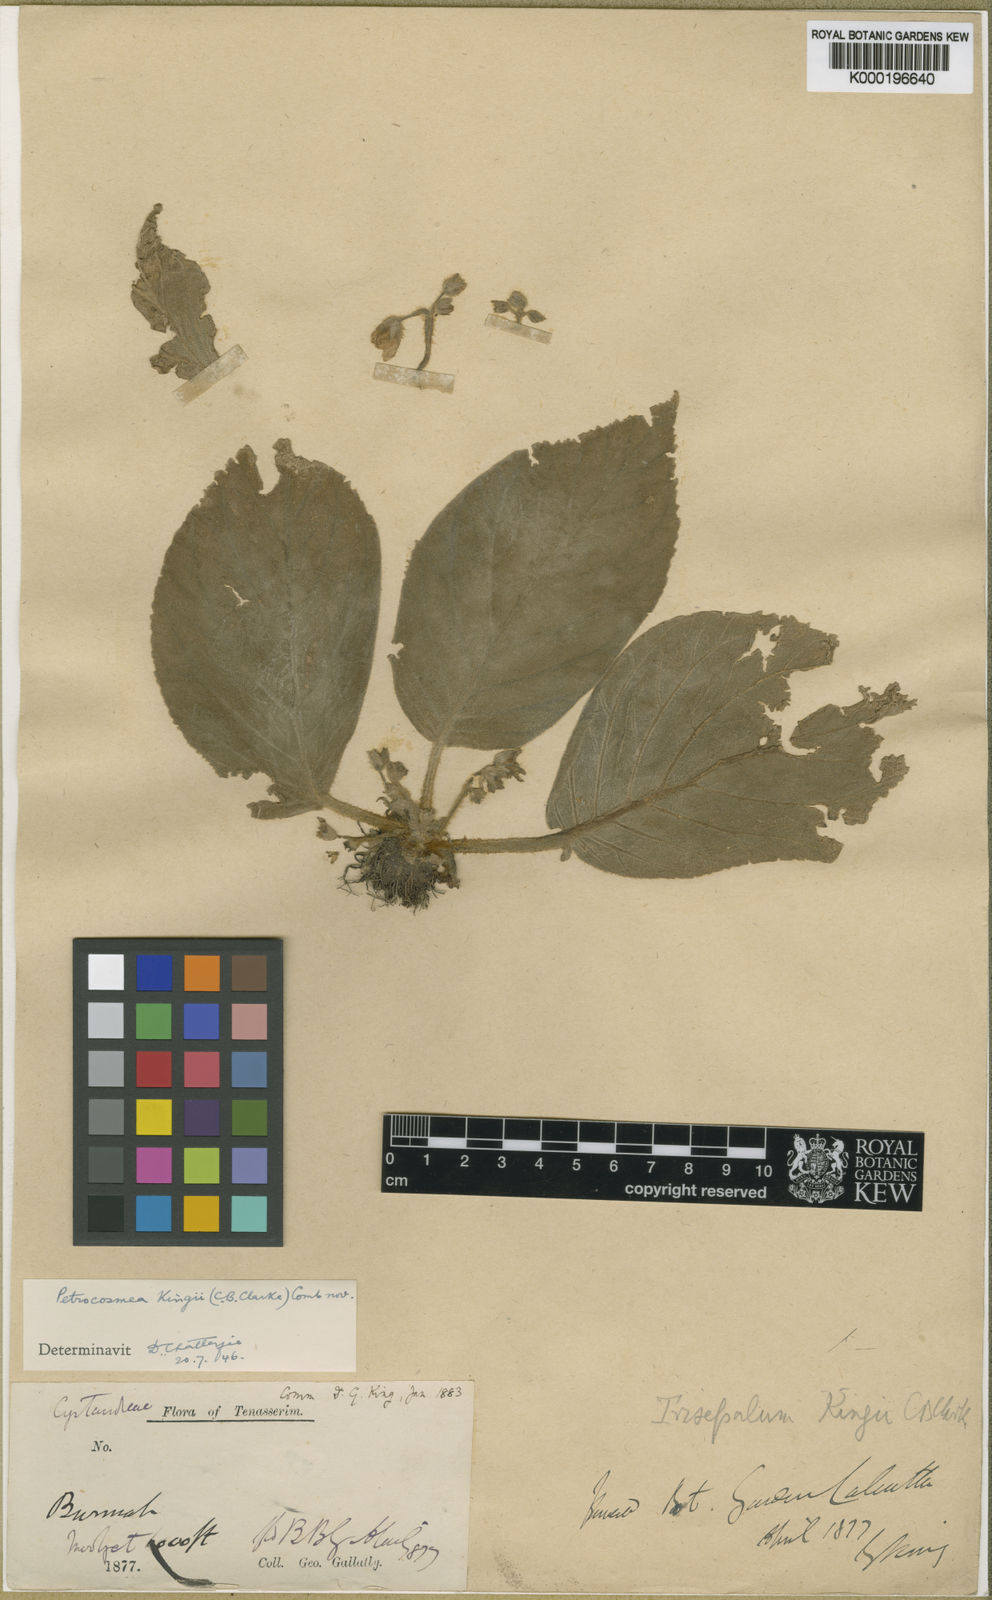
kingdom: Plantae
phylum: Tracheophyta
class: Magnoliopsida
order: Lamiales
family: Gesneriaceae
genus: Petrocosmea
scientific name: Petrocosmea kingii
